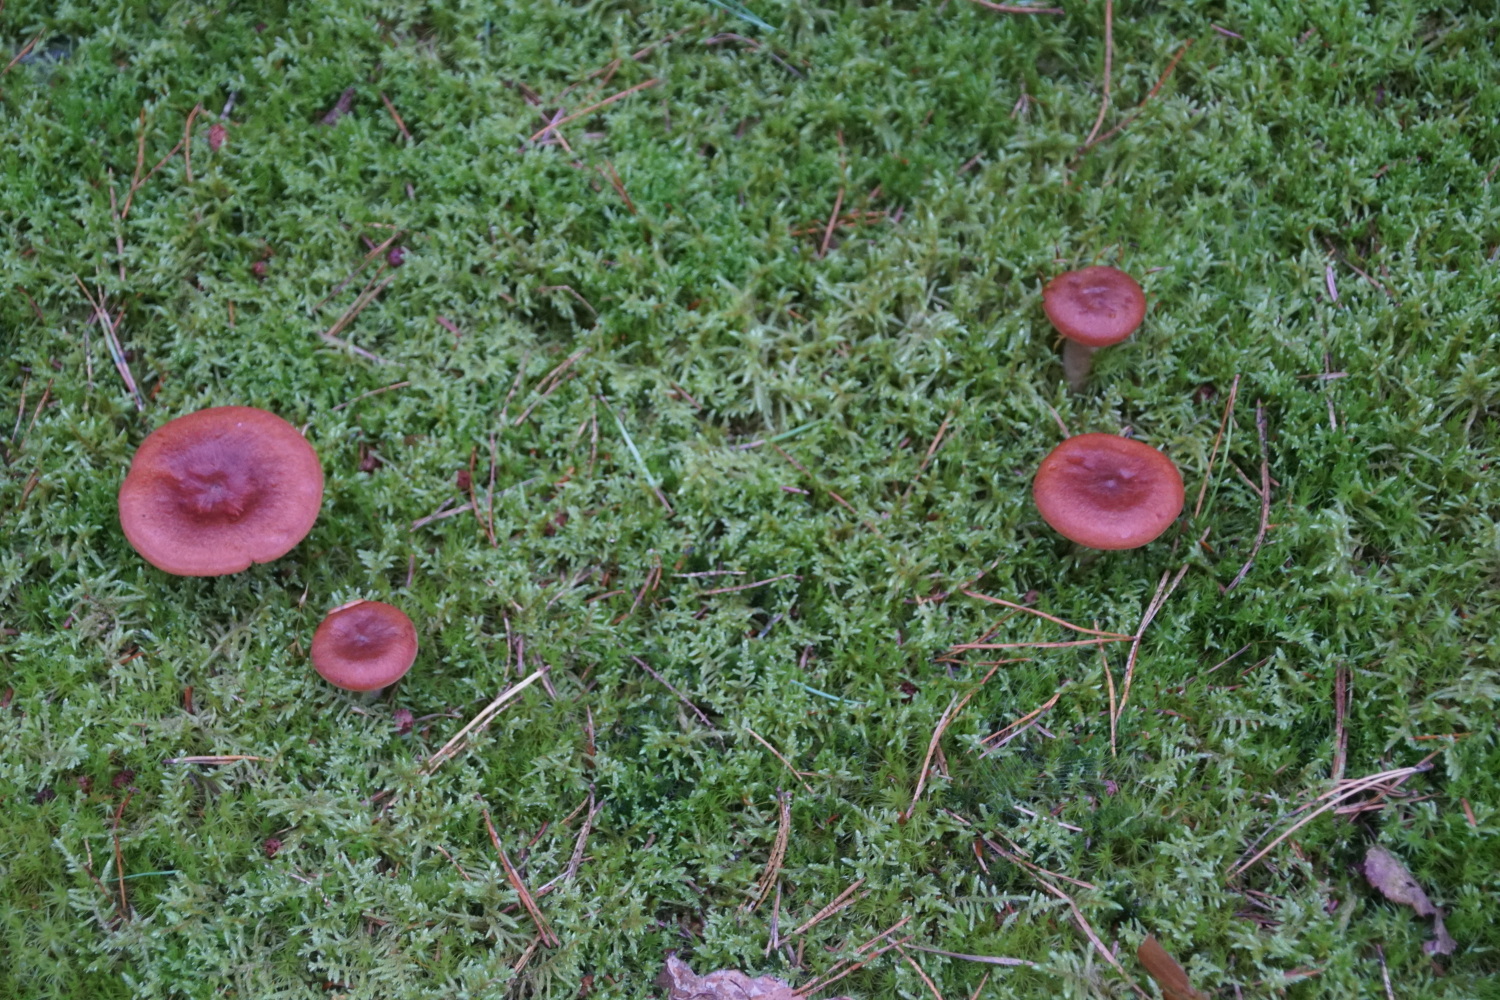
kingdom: Fungi
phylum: Basidiomycota
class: Agaricomycetes
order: Russulales
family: Russulaceae
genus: Lactarius
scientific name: Lactarius rufus
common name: rødbrun mælkehat
